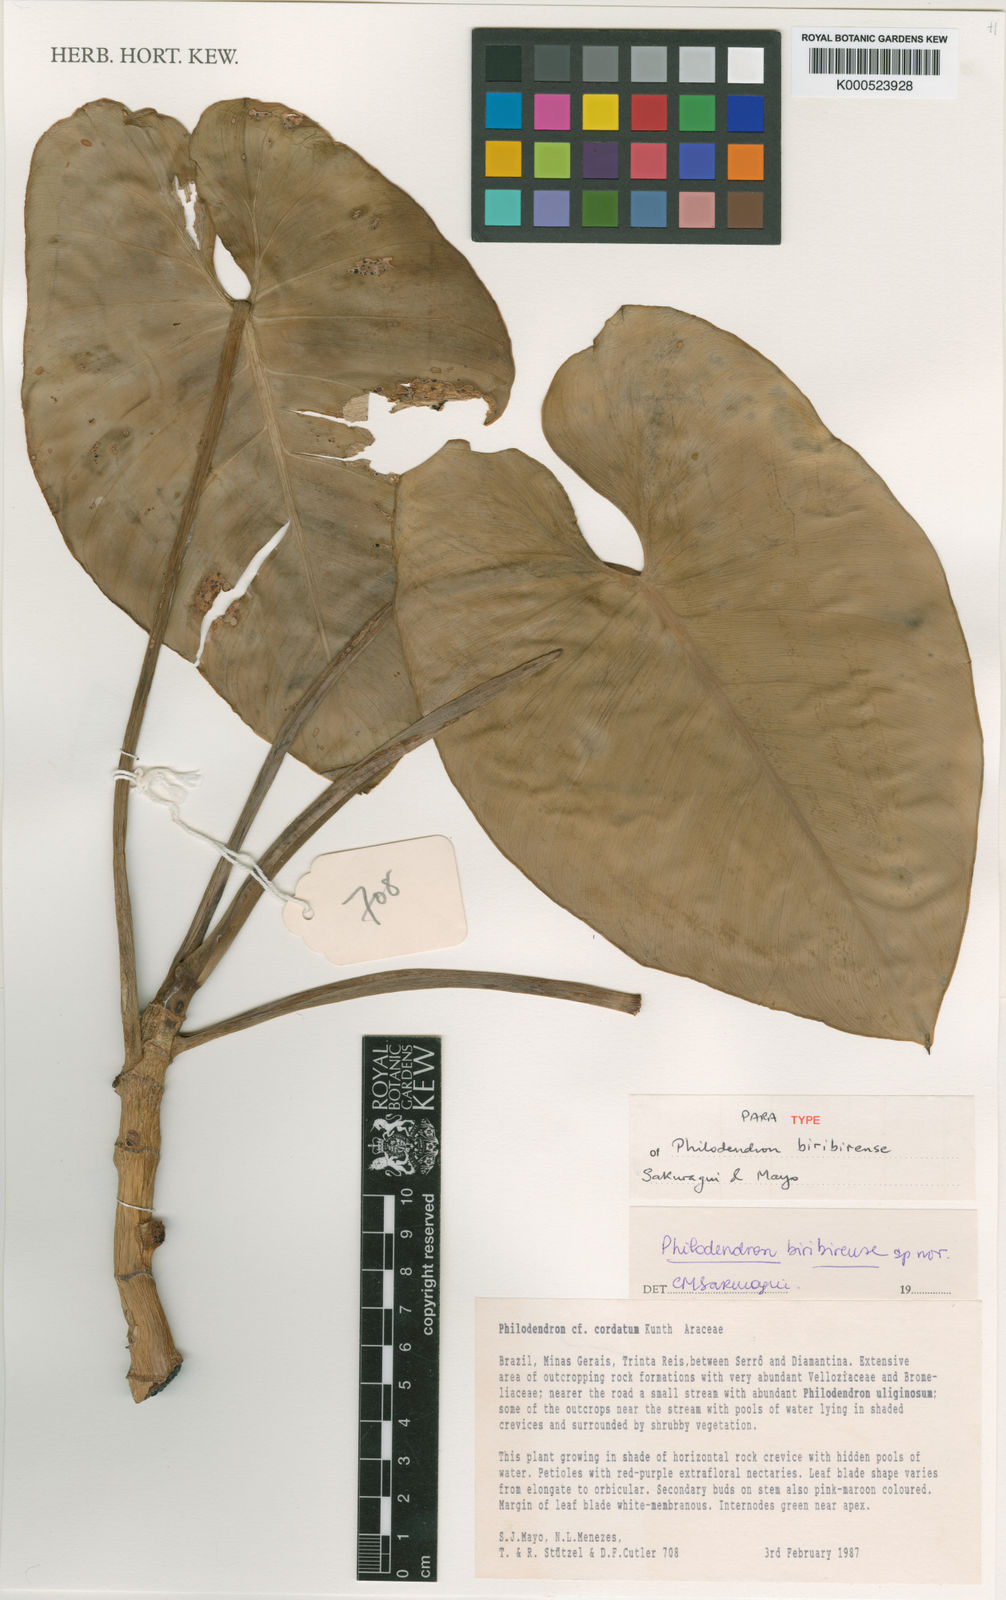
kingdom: Plantae
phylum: Tracheophyta
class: Liliopsida
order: Alismatales
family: Araceae
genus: Philodendron
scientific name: Philodendron biribiriense
